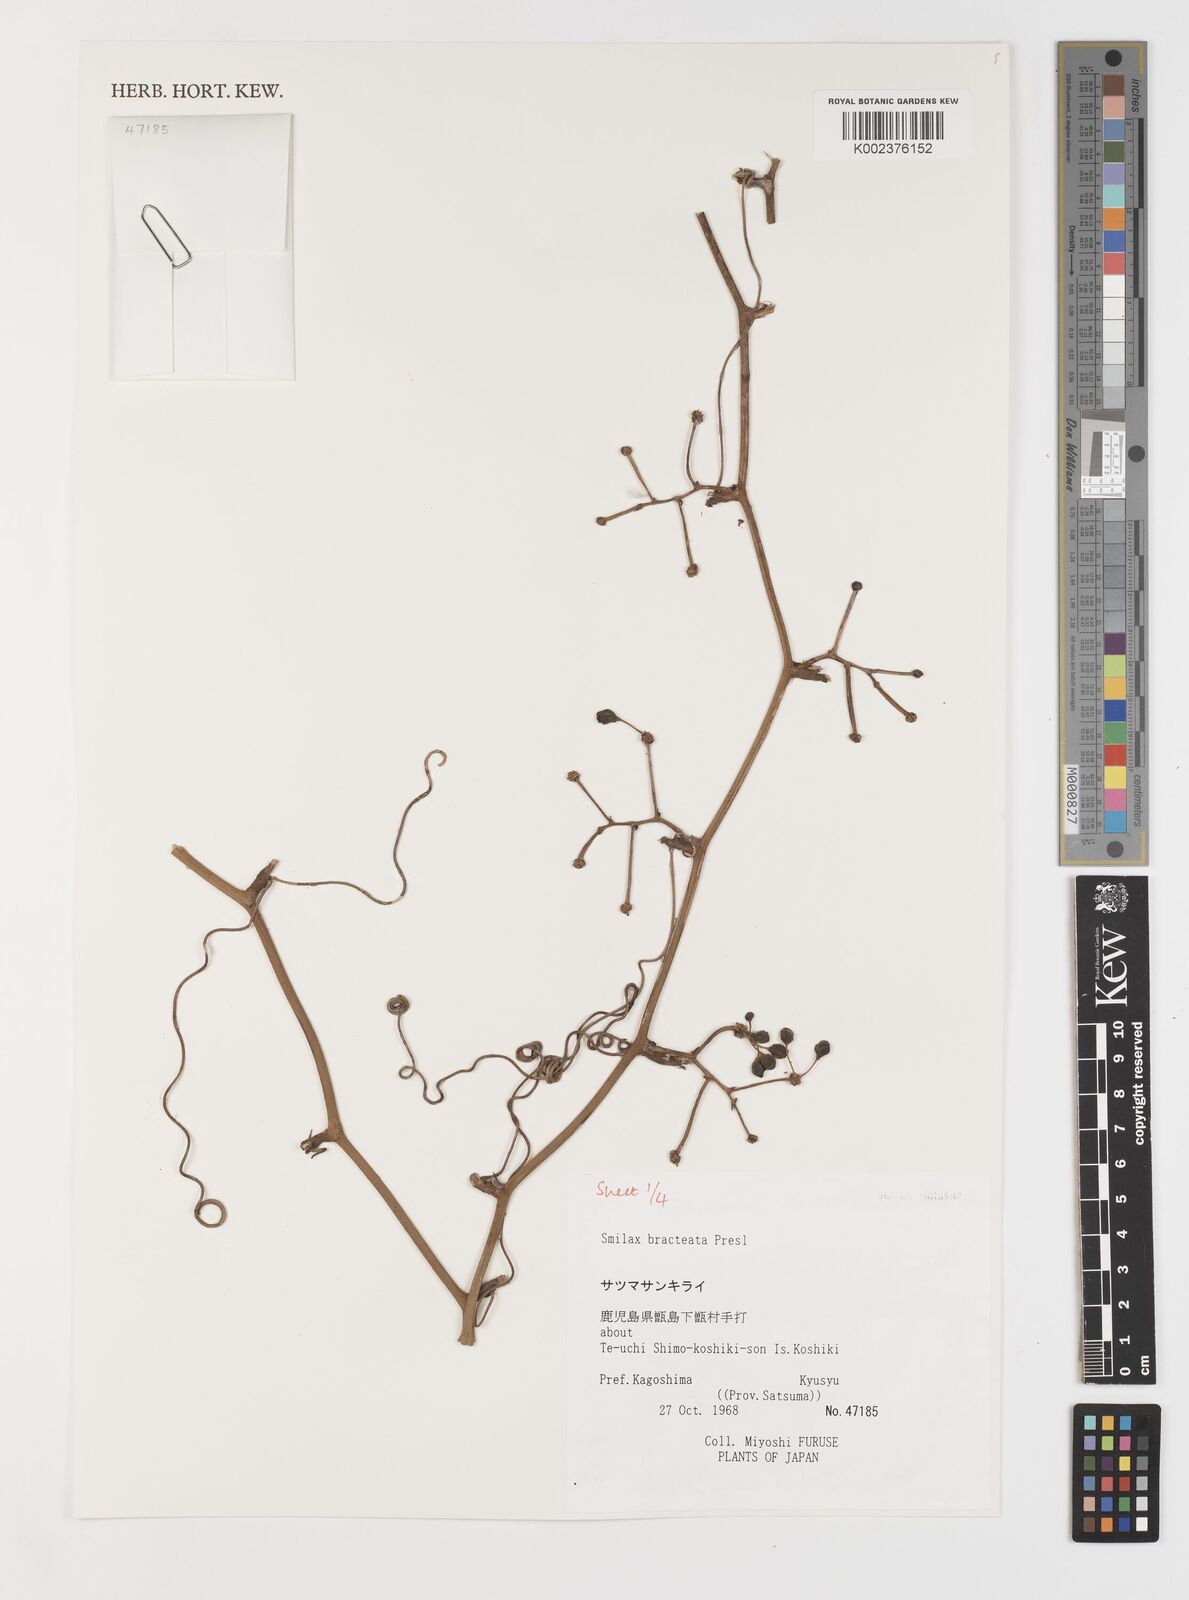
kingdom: Plantae
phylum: Tracheophyta
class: Liliopsida
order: Liliales
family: Smilacaceae
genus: Smilax
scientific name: Smilax bracteata
